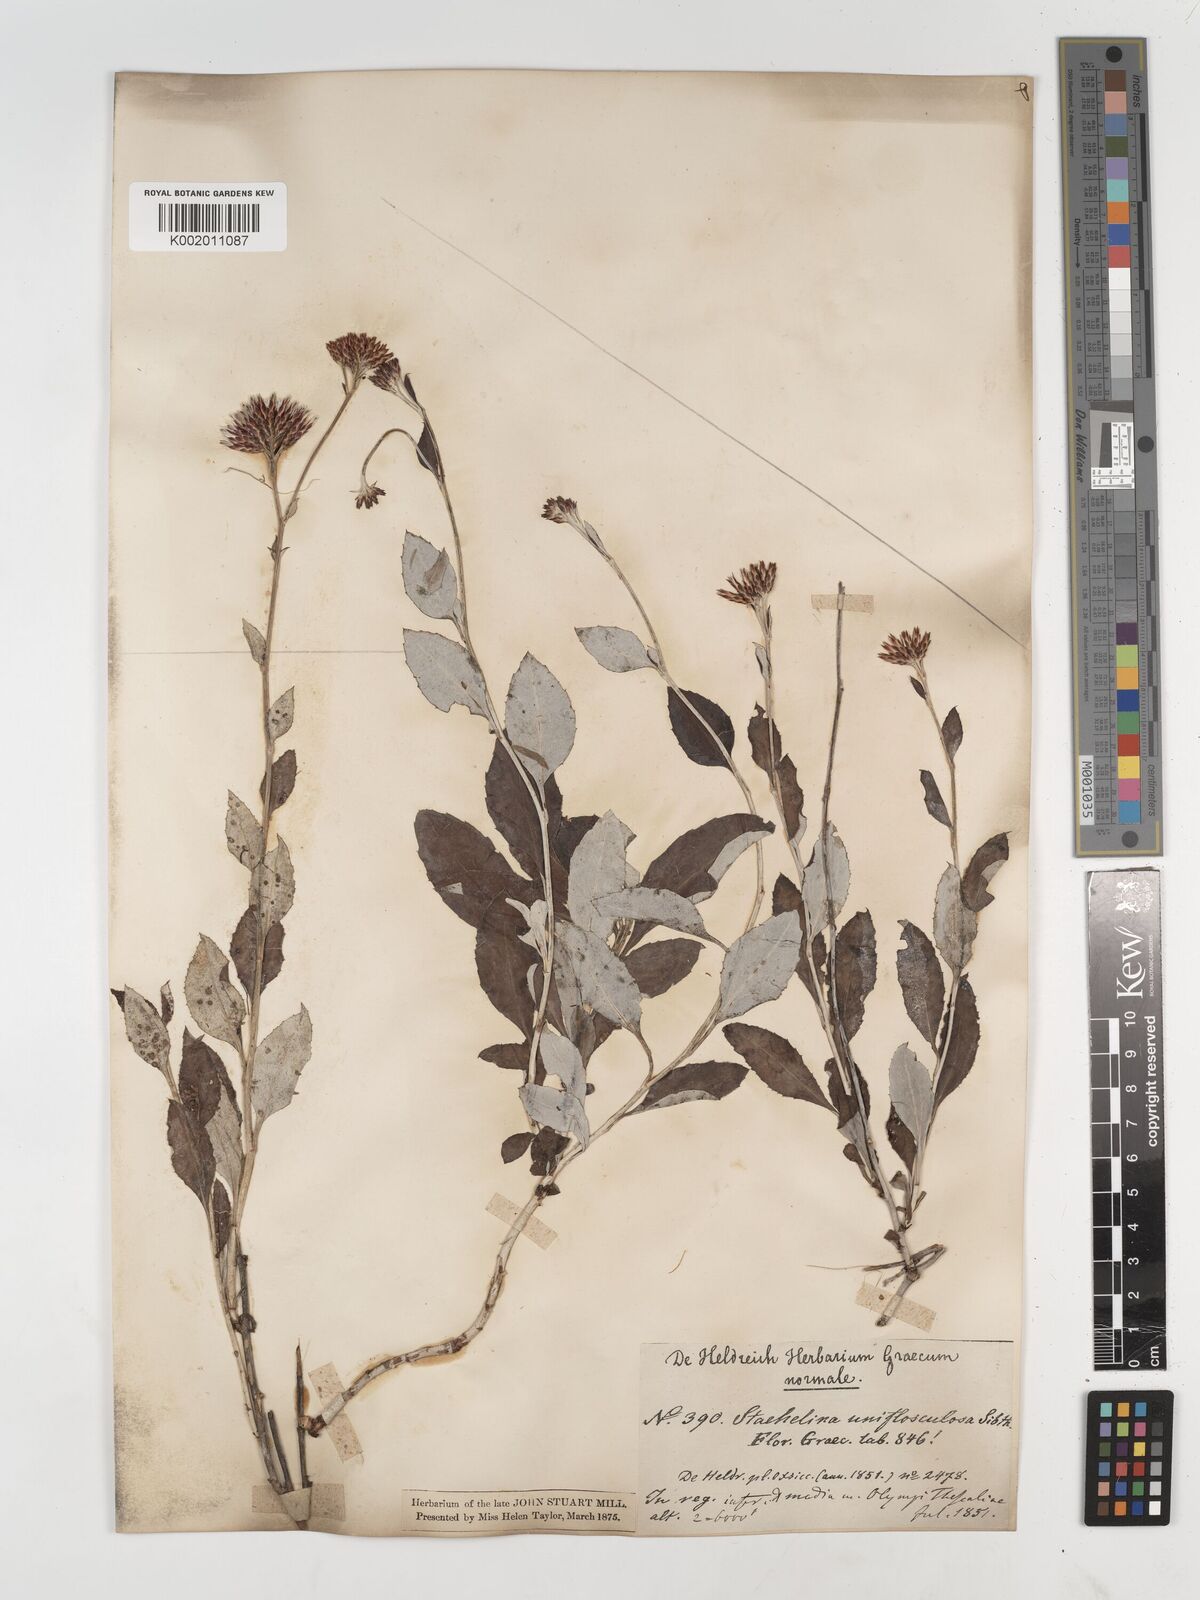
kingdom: Plantae
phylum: Tracheophyta
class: Magnoliopsida
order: Asterales
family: Asteraceae
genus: Staehelina
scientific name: Staehelina uniflosculosa
